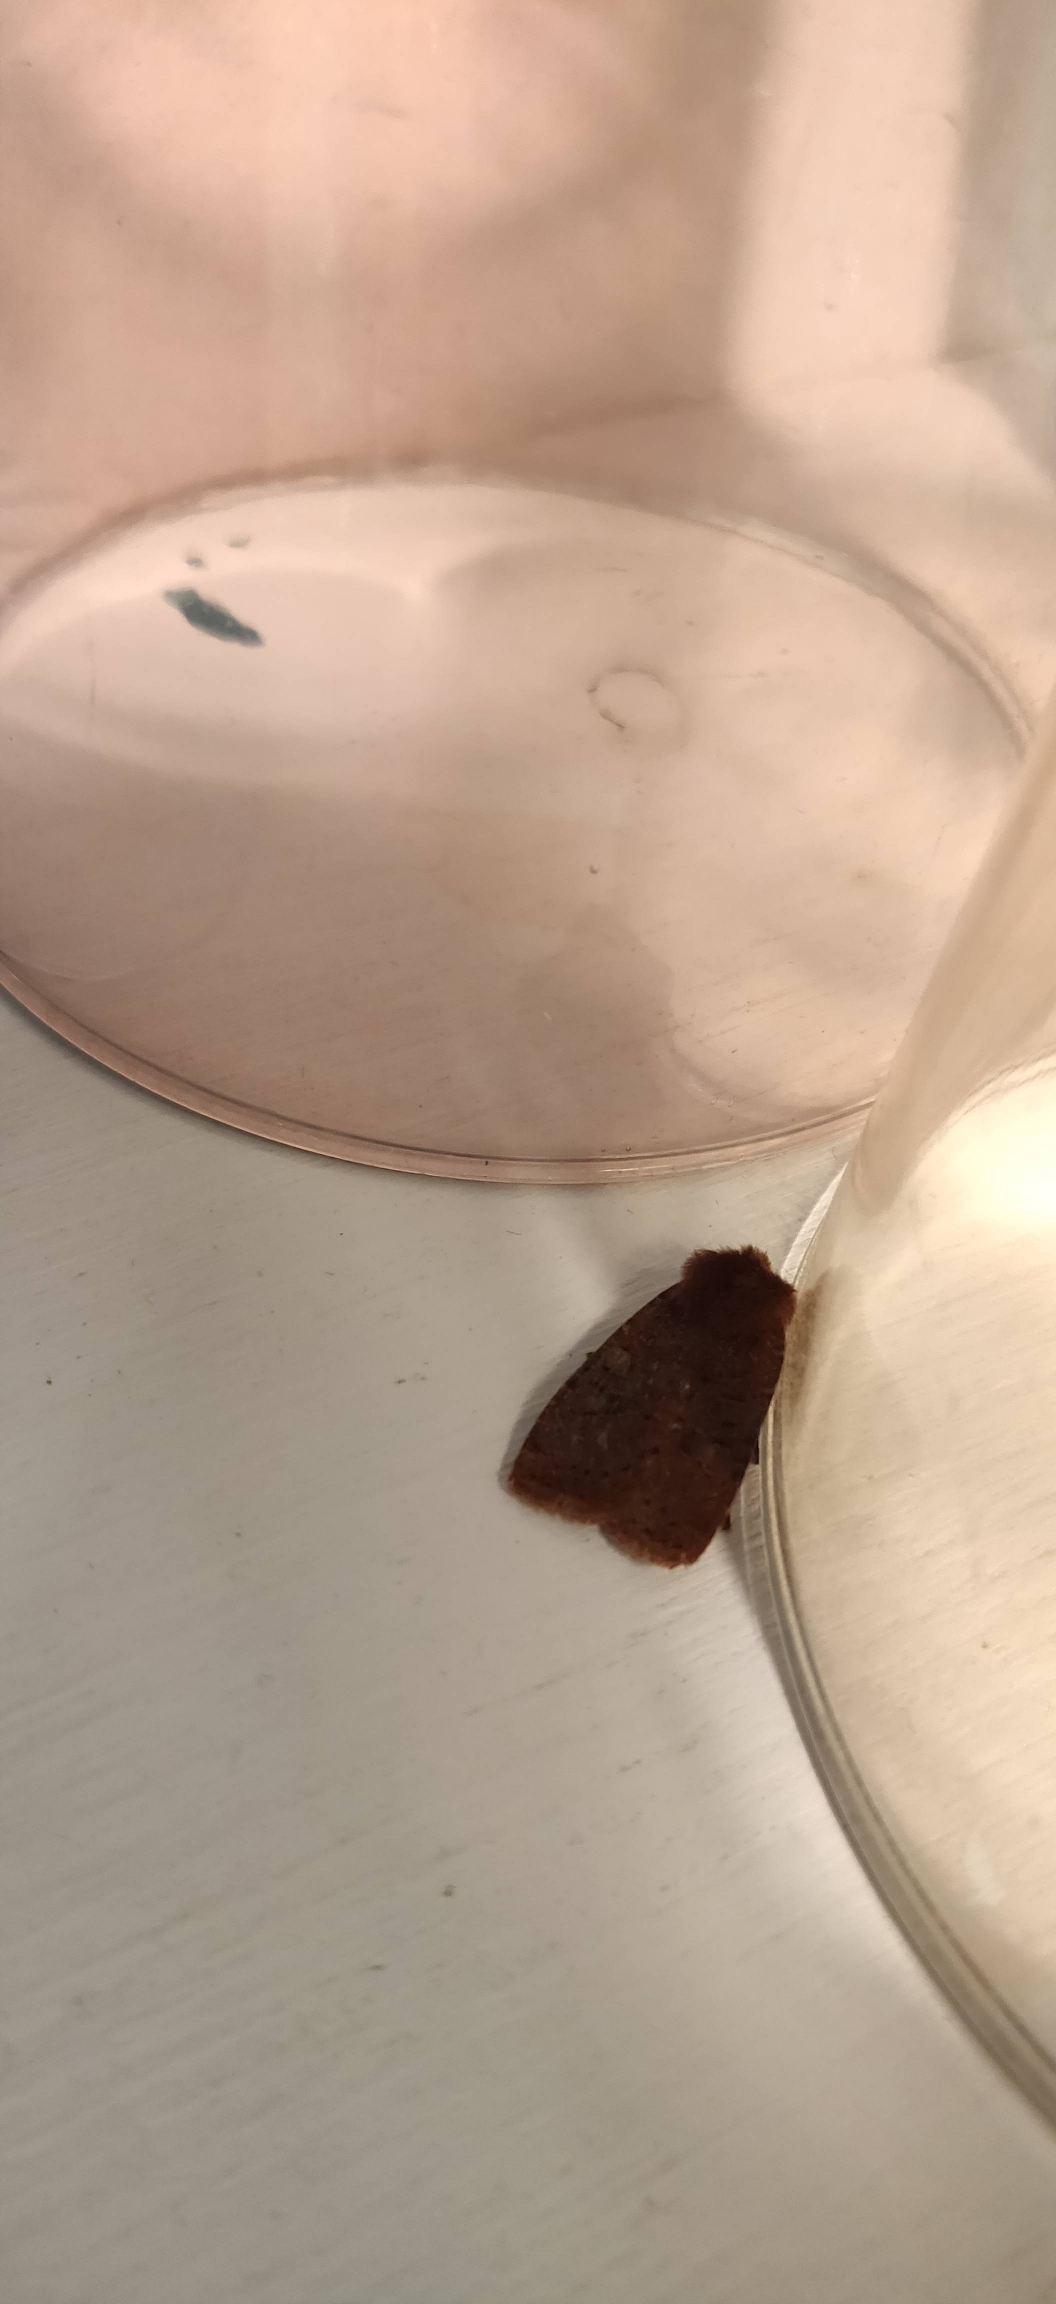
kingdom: Animalia
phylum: Arthropoda
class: Insecta
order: Lepidoptera
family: Noctuidae
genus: Conistra
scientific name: Conistra vaccinii
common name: Blåbærugle
